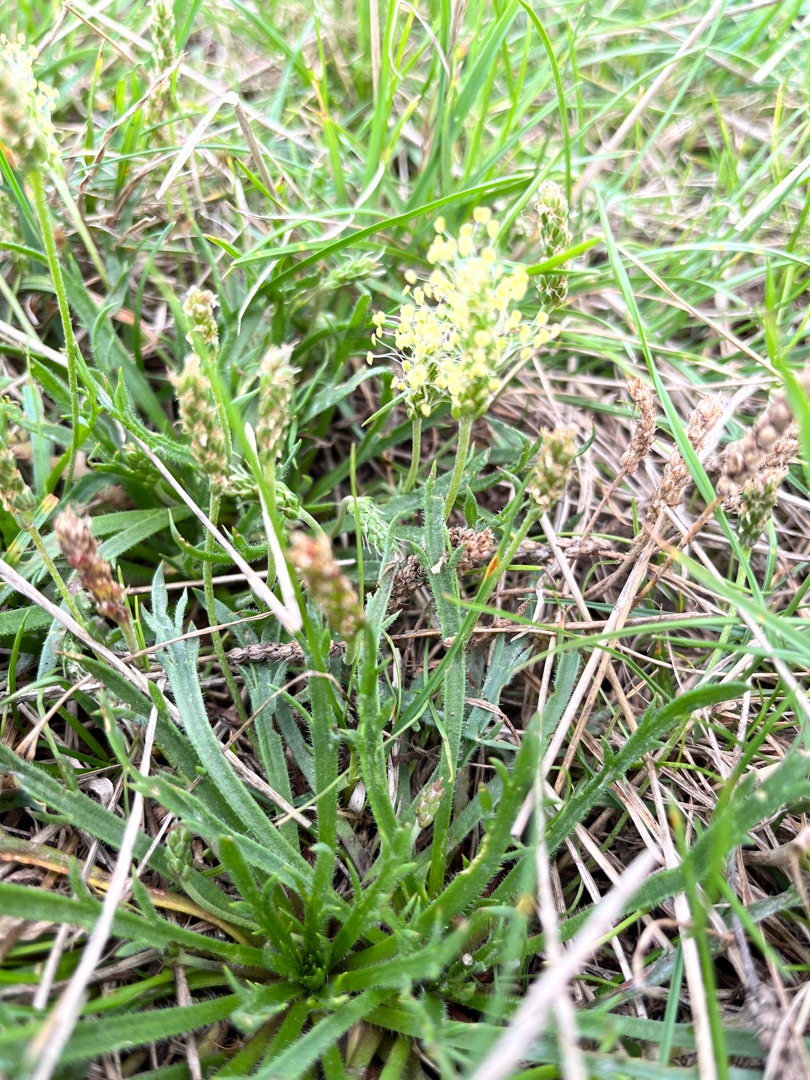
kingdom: Plantae
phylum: Tracheophyta
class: Magnoliopsida
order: Lamiales
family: Plantaginaceae
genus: Plantago
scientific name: Plantago coronopus
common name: Fliget vejbred
